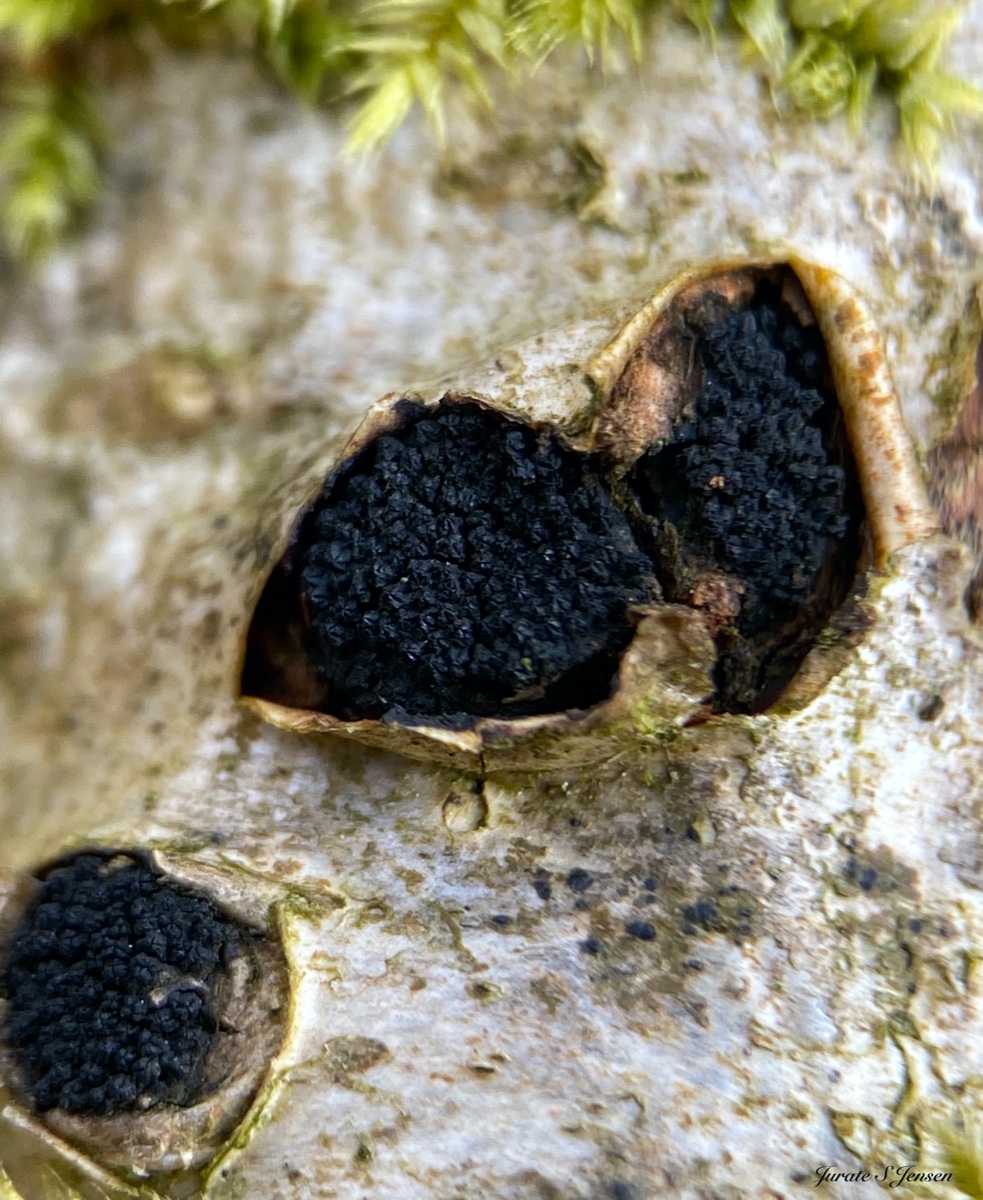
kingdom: Fungi
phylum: Ascomycota
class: Sordariomycetes
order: Xylariales
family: Diatrypaceae
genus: Eutypella
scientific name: Eutypella
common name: kulskorpe
